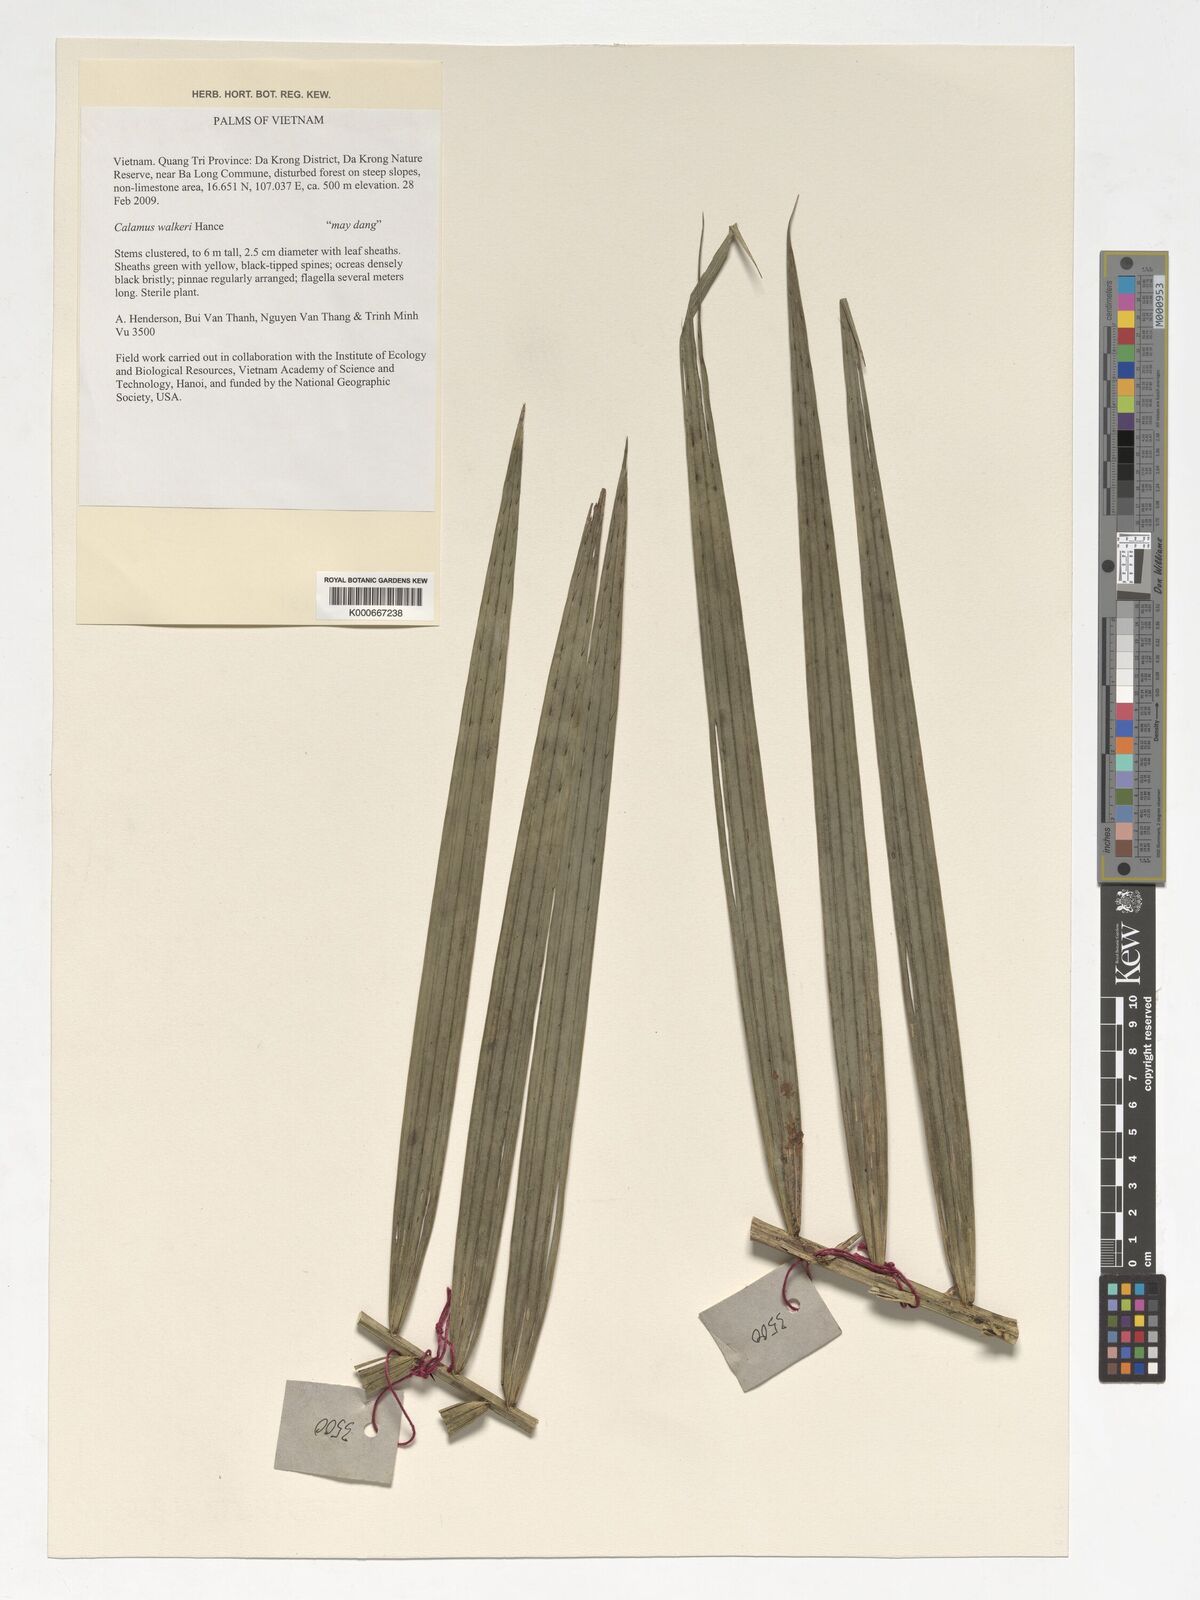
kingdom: Plantae
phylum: Tracheophyta
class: Liliopsida
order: Arecales
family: Arecaceae
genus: Calamus
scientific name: Calamus walkeri
